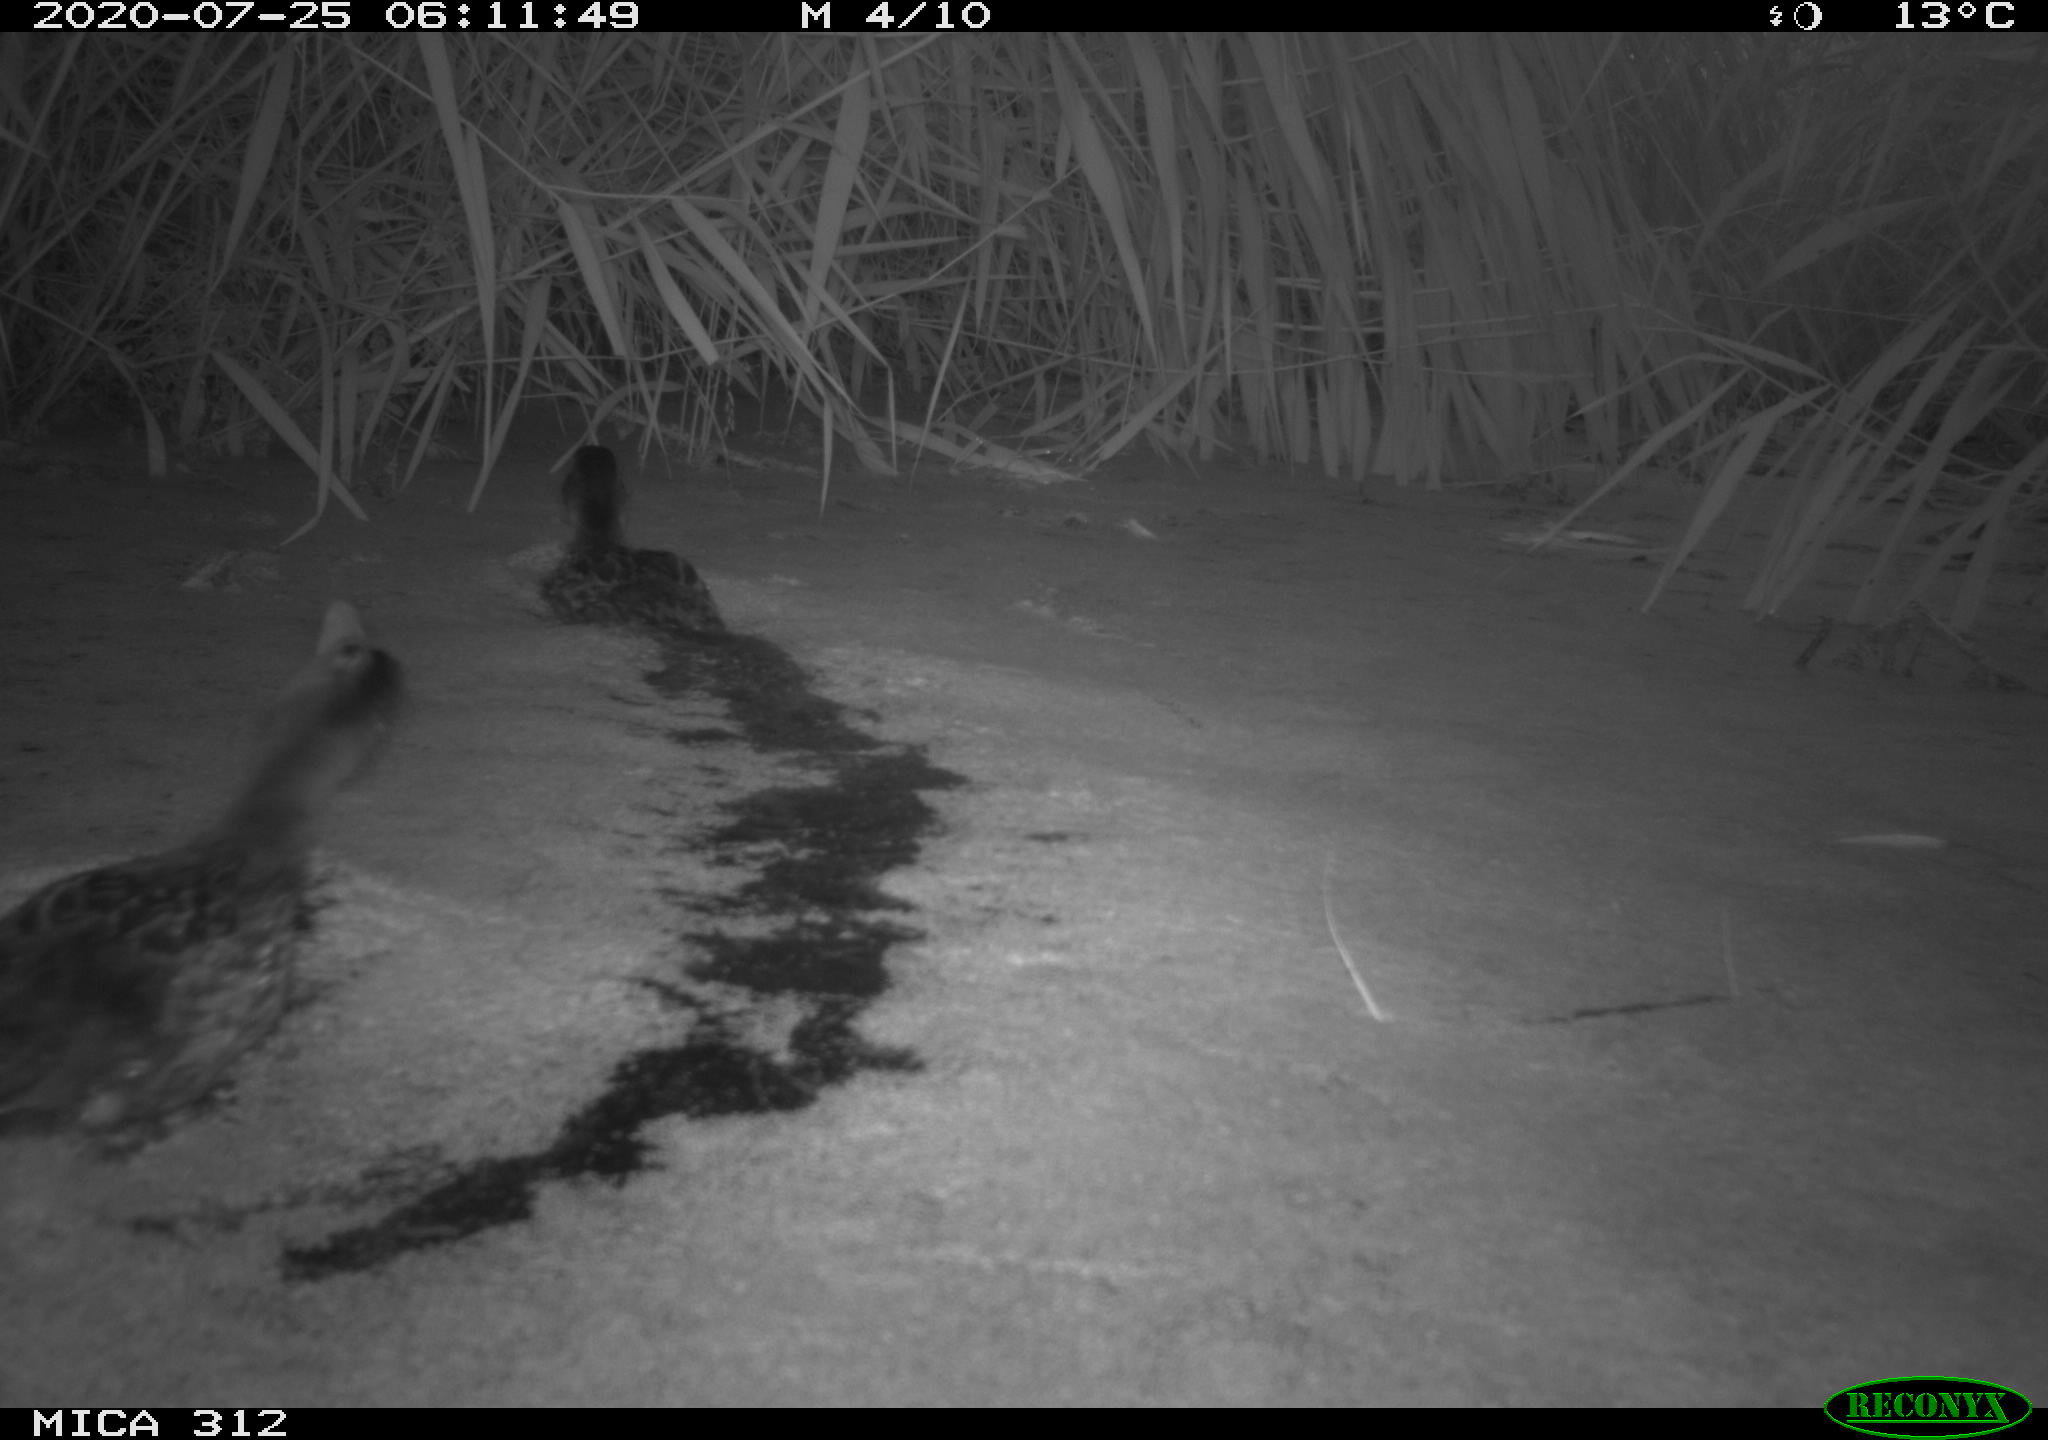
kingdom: Animalia
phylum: Chordata
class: Aves
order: Anseriformes
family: Anatidae
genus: Anas
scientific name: Anas platyrhynchos
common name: Mallard
